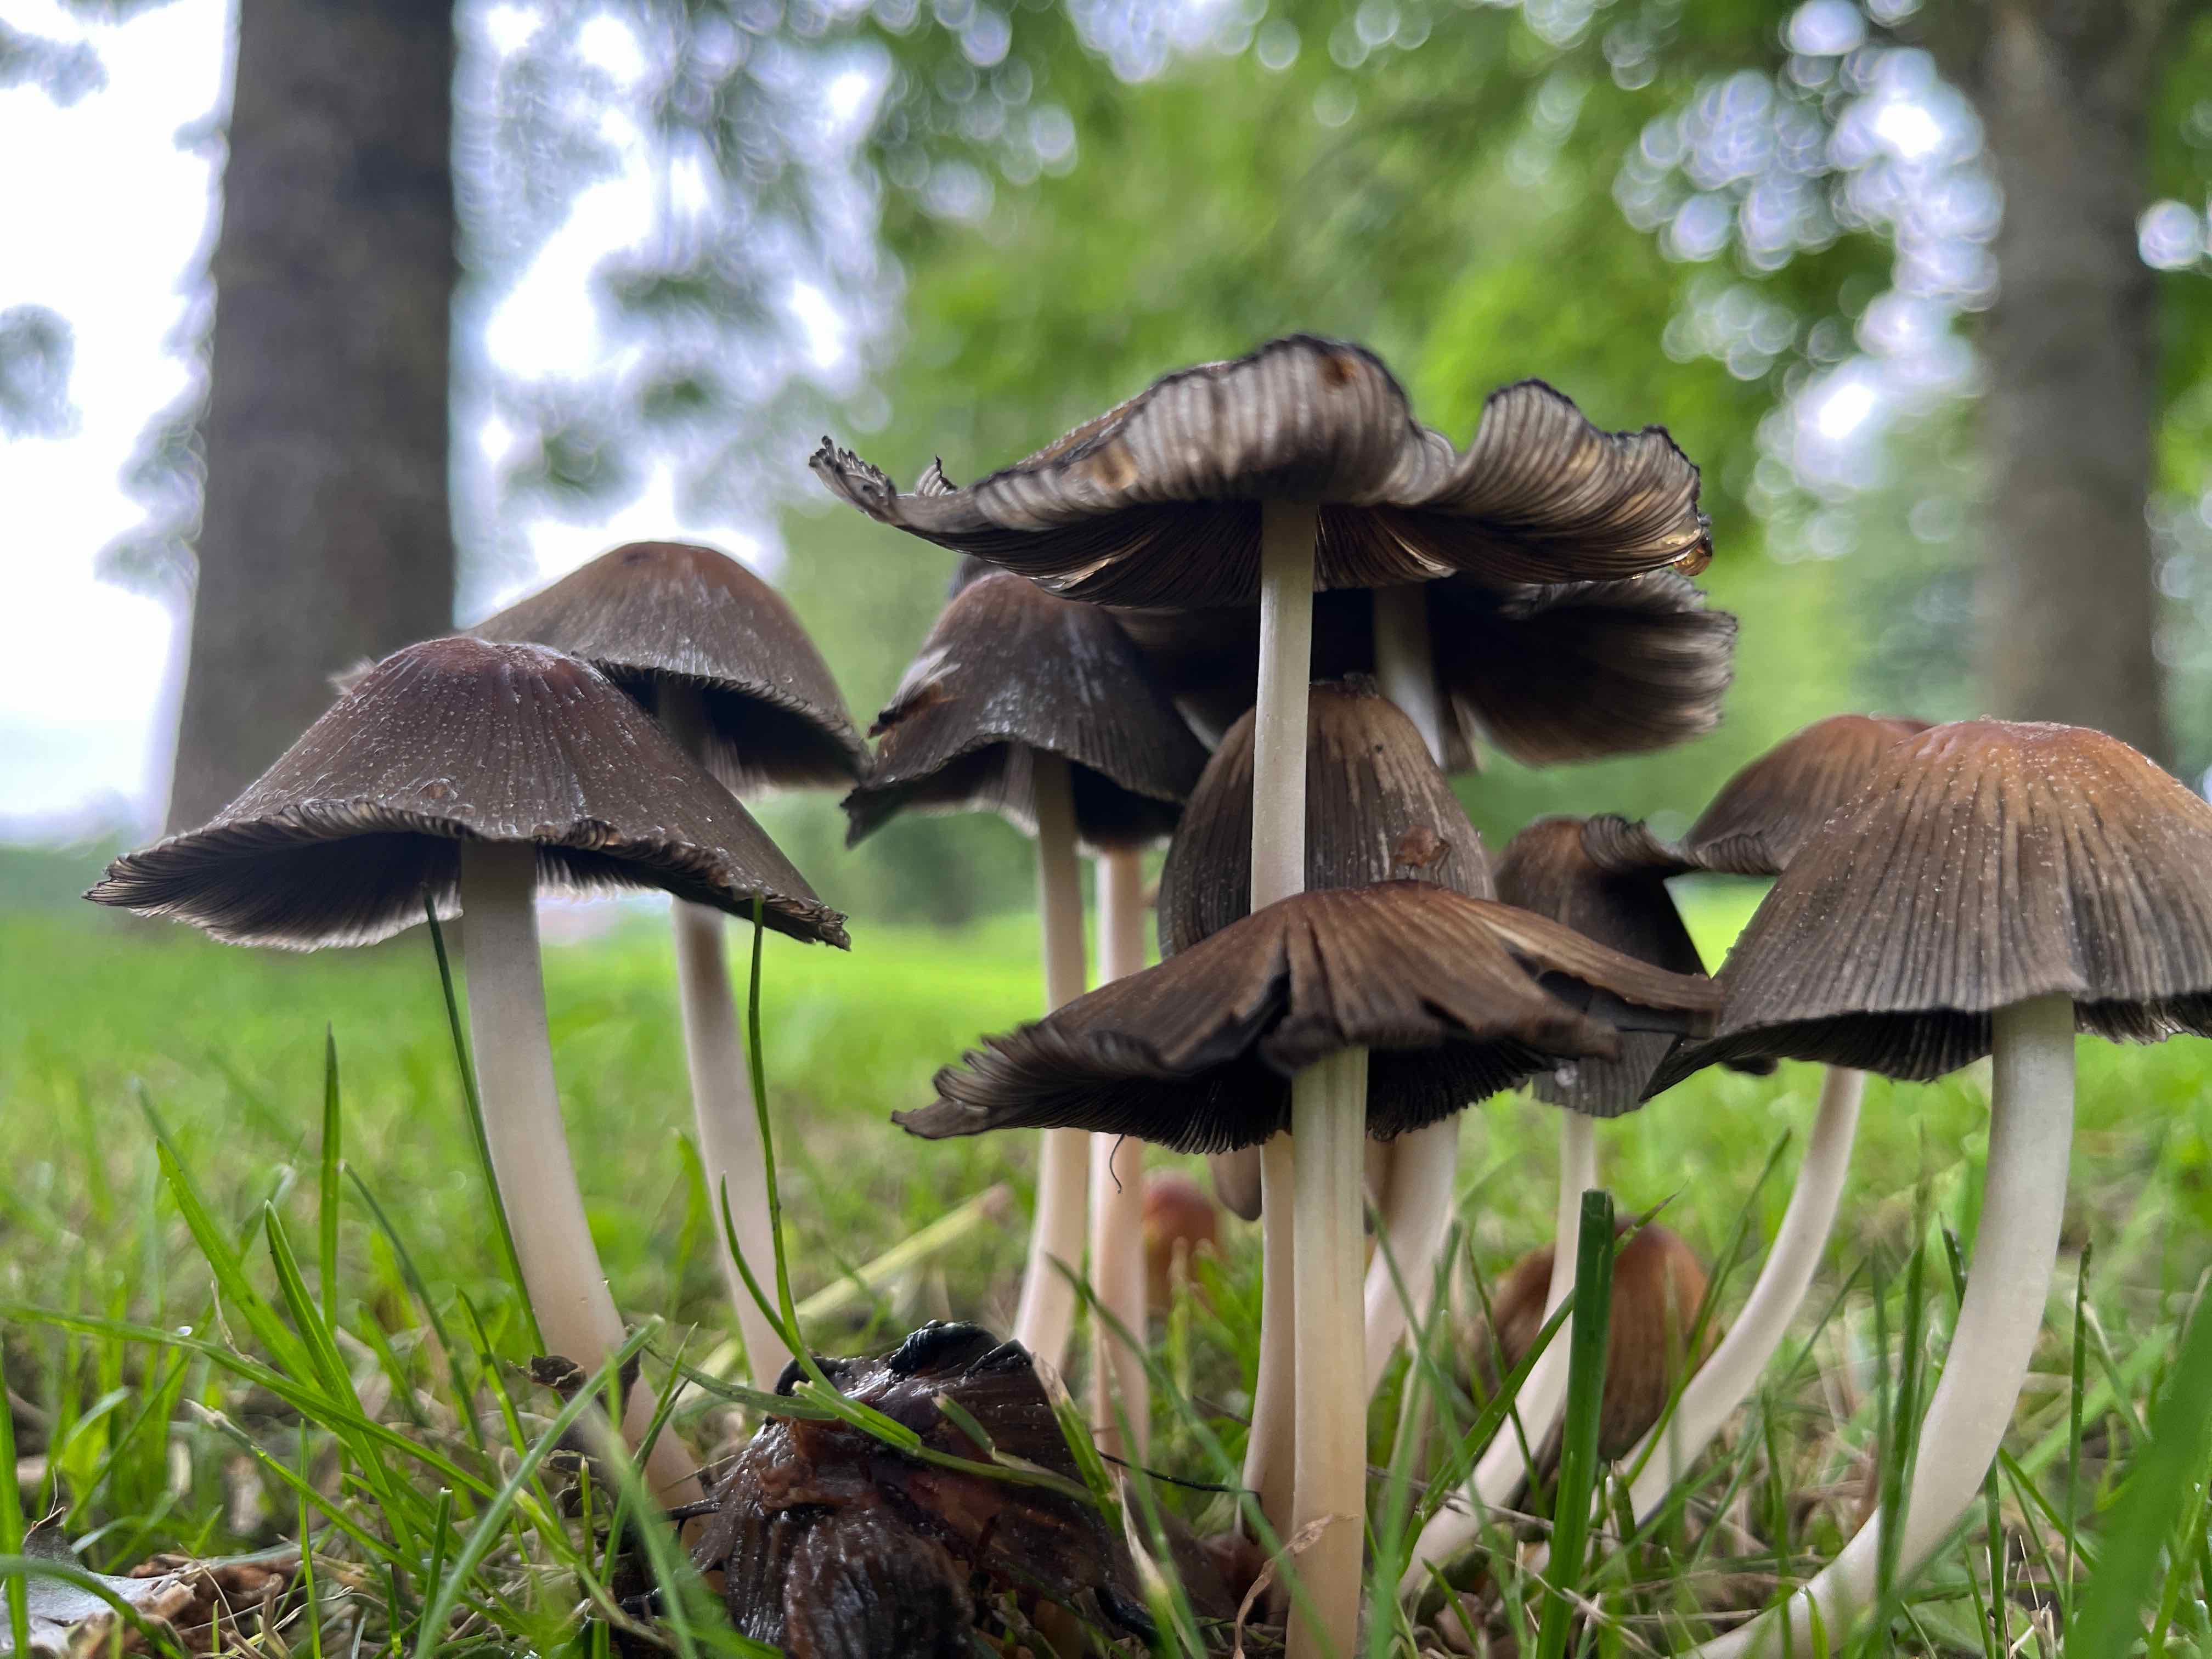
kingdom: Fungi
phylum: Basidiomycota
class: Agaricomycetes
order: Agaricales
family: Psathyrellaceae
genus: Coprinellus
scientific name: Coprinellus micaceus
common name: glimmer-blækhat
